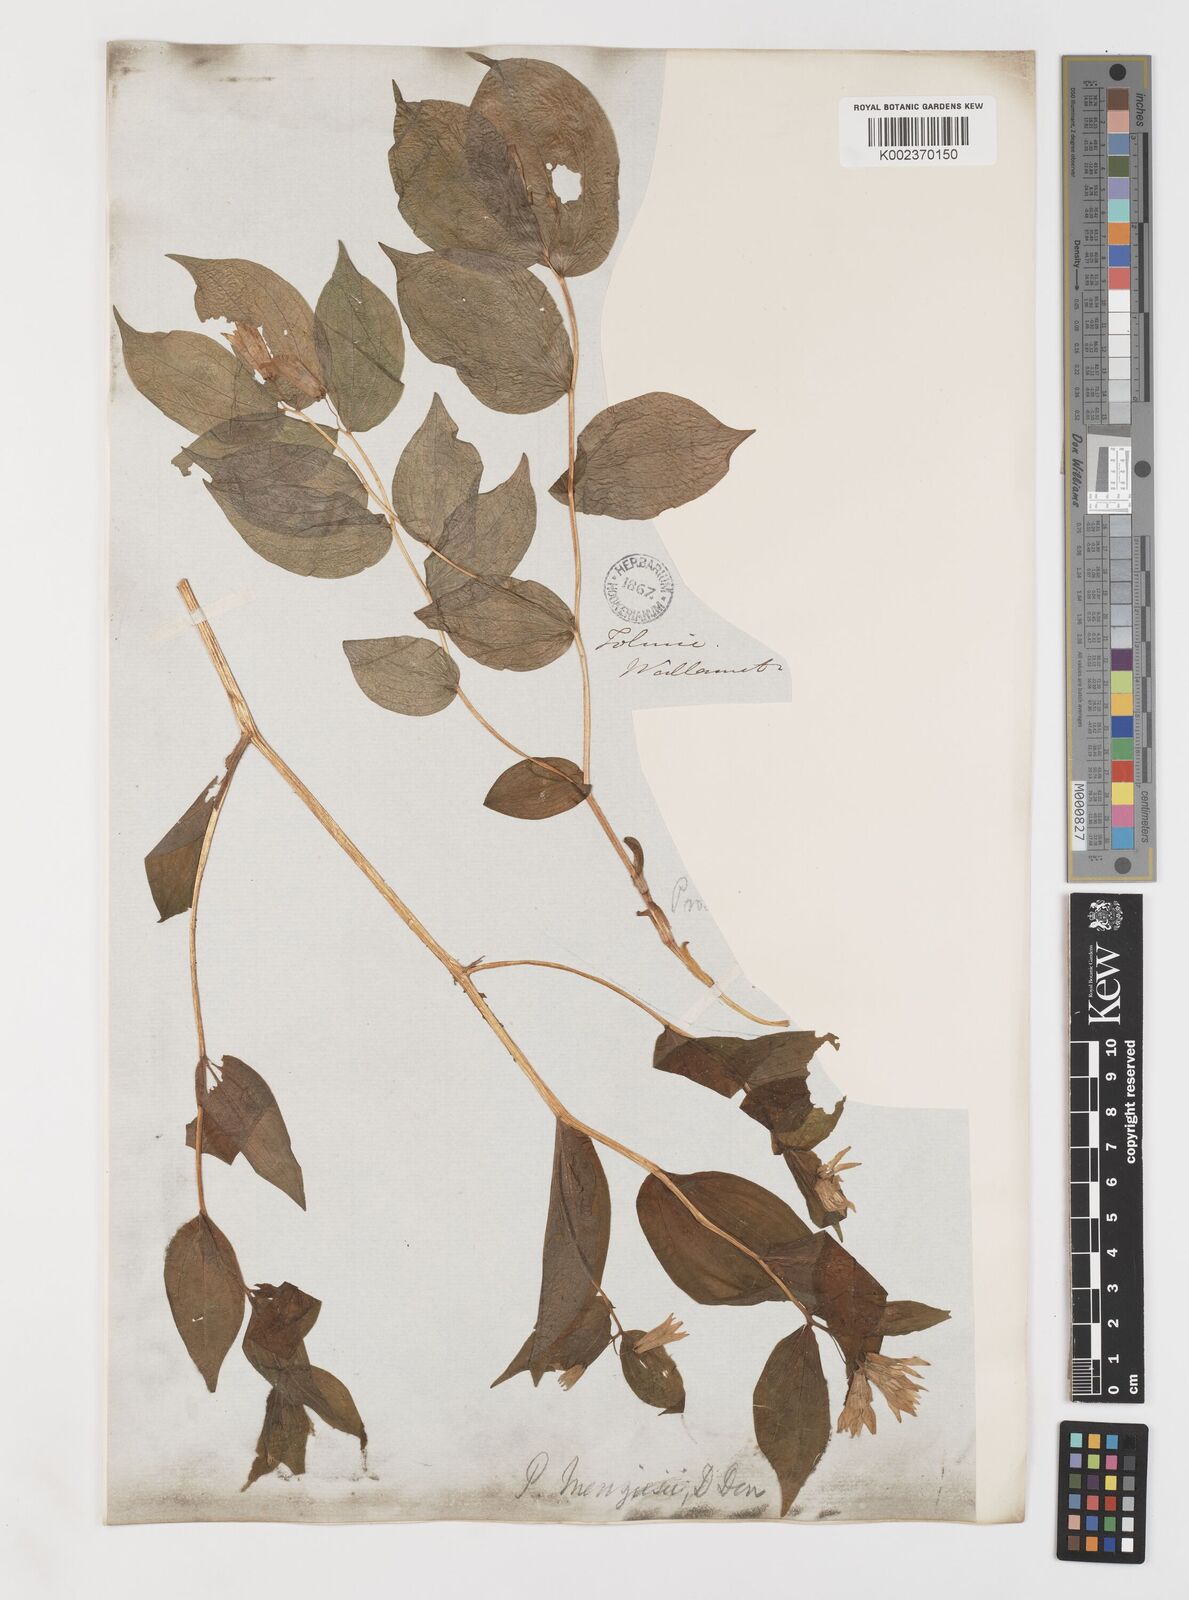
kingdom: Plantae
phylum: Tracheophyta
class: Liliopsida
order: Liliales
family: Liliaceae
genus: Prosartes
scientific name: Prosartes smithii
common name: Fairy-lantern
